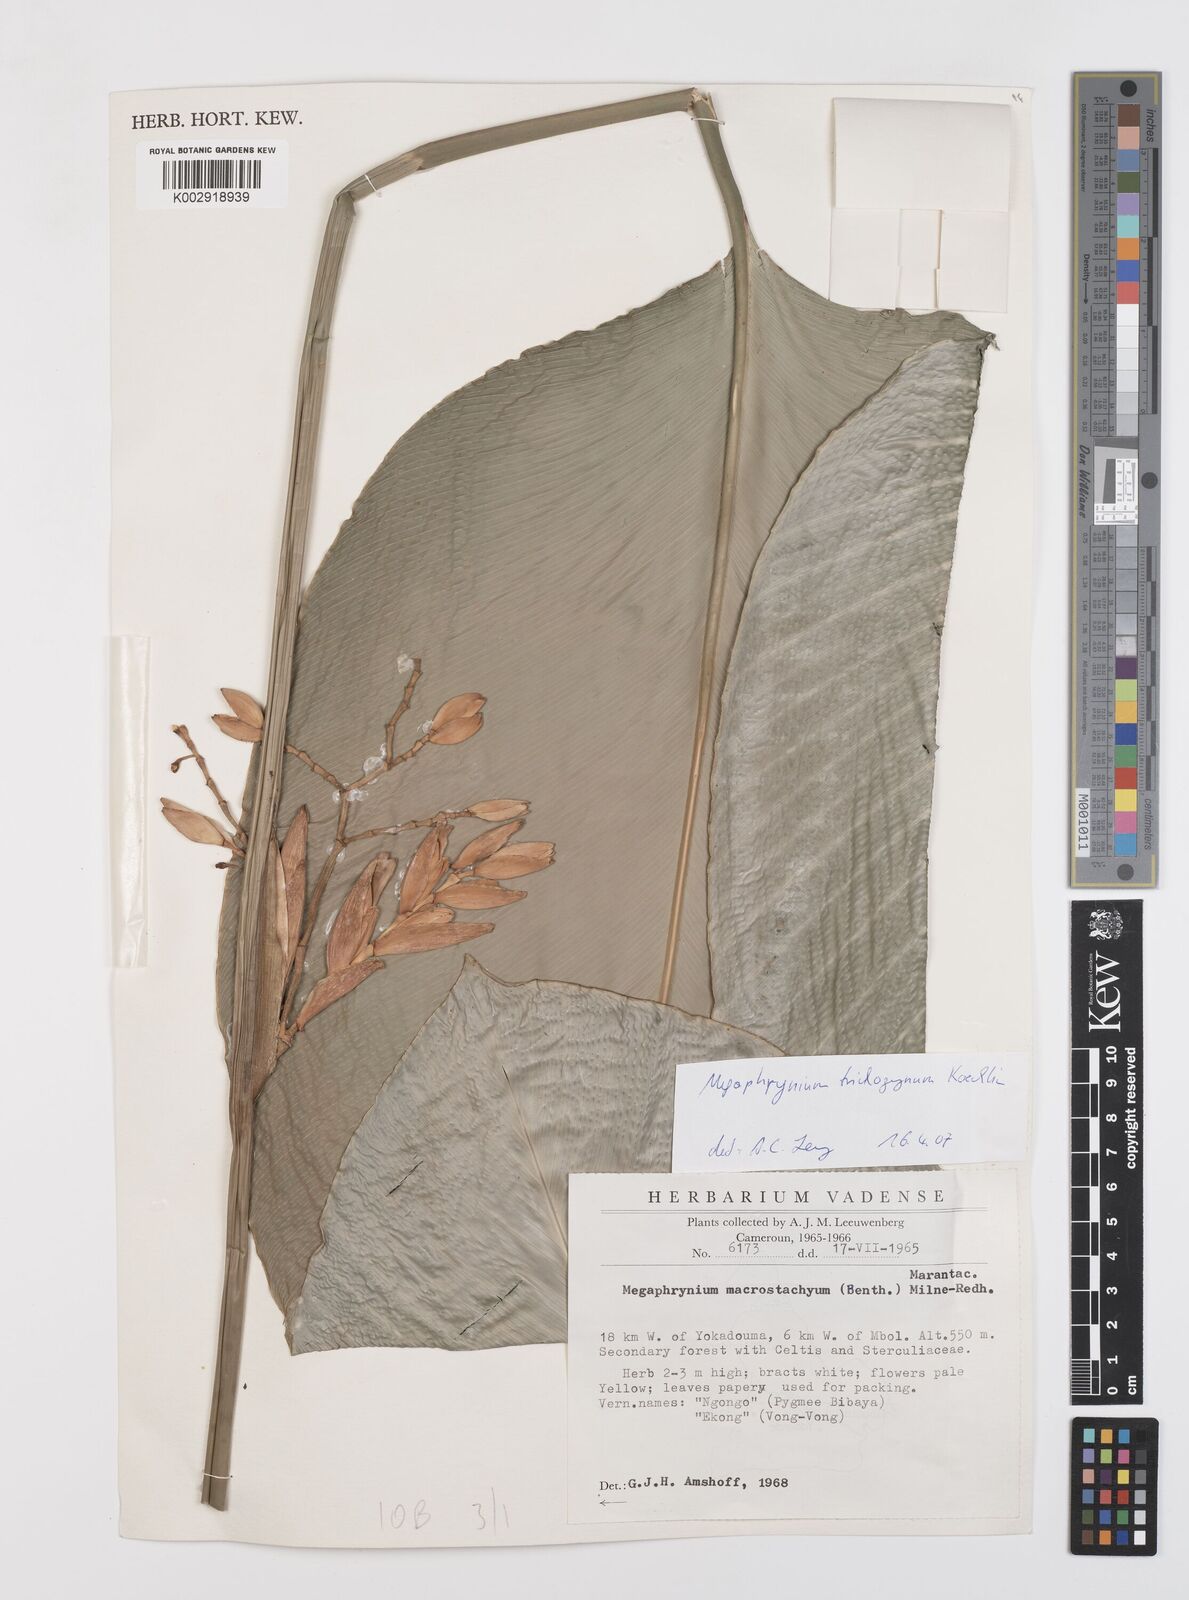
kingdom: Plantae
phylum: Tracheophyta
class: Liliopsida
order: Zingiberales
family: Marantaceae
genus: Megaphrynium
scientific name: Megaphrynium trichogynum
